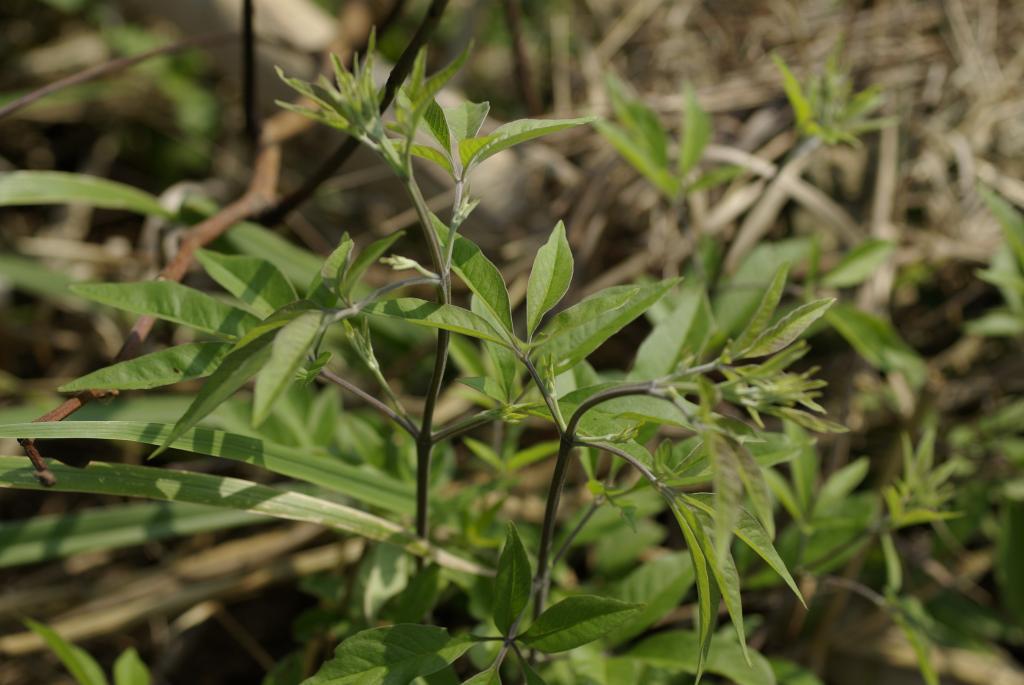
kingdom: Plantae
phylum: Tracheophyta
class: Magnoliopsida
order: Lamiales
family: Lamiaceae
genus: Vitex
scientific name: Vitex negundo
